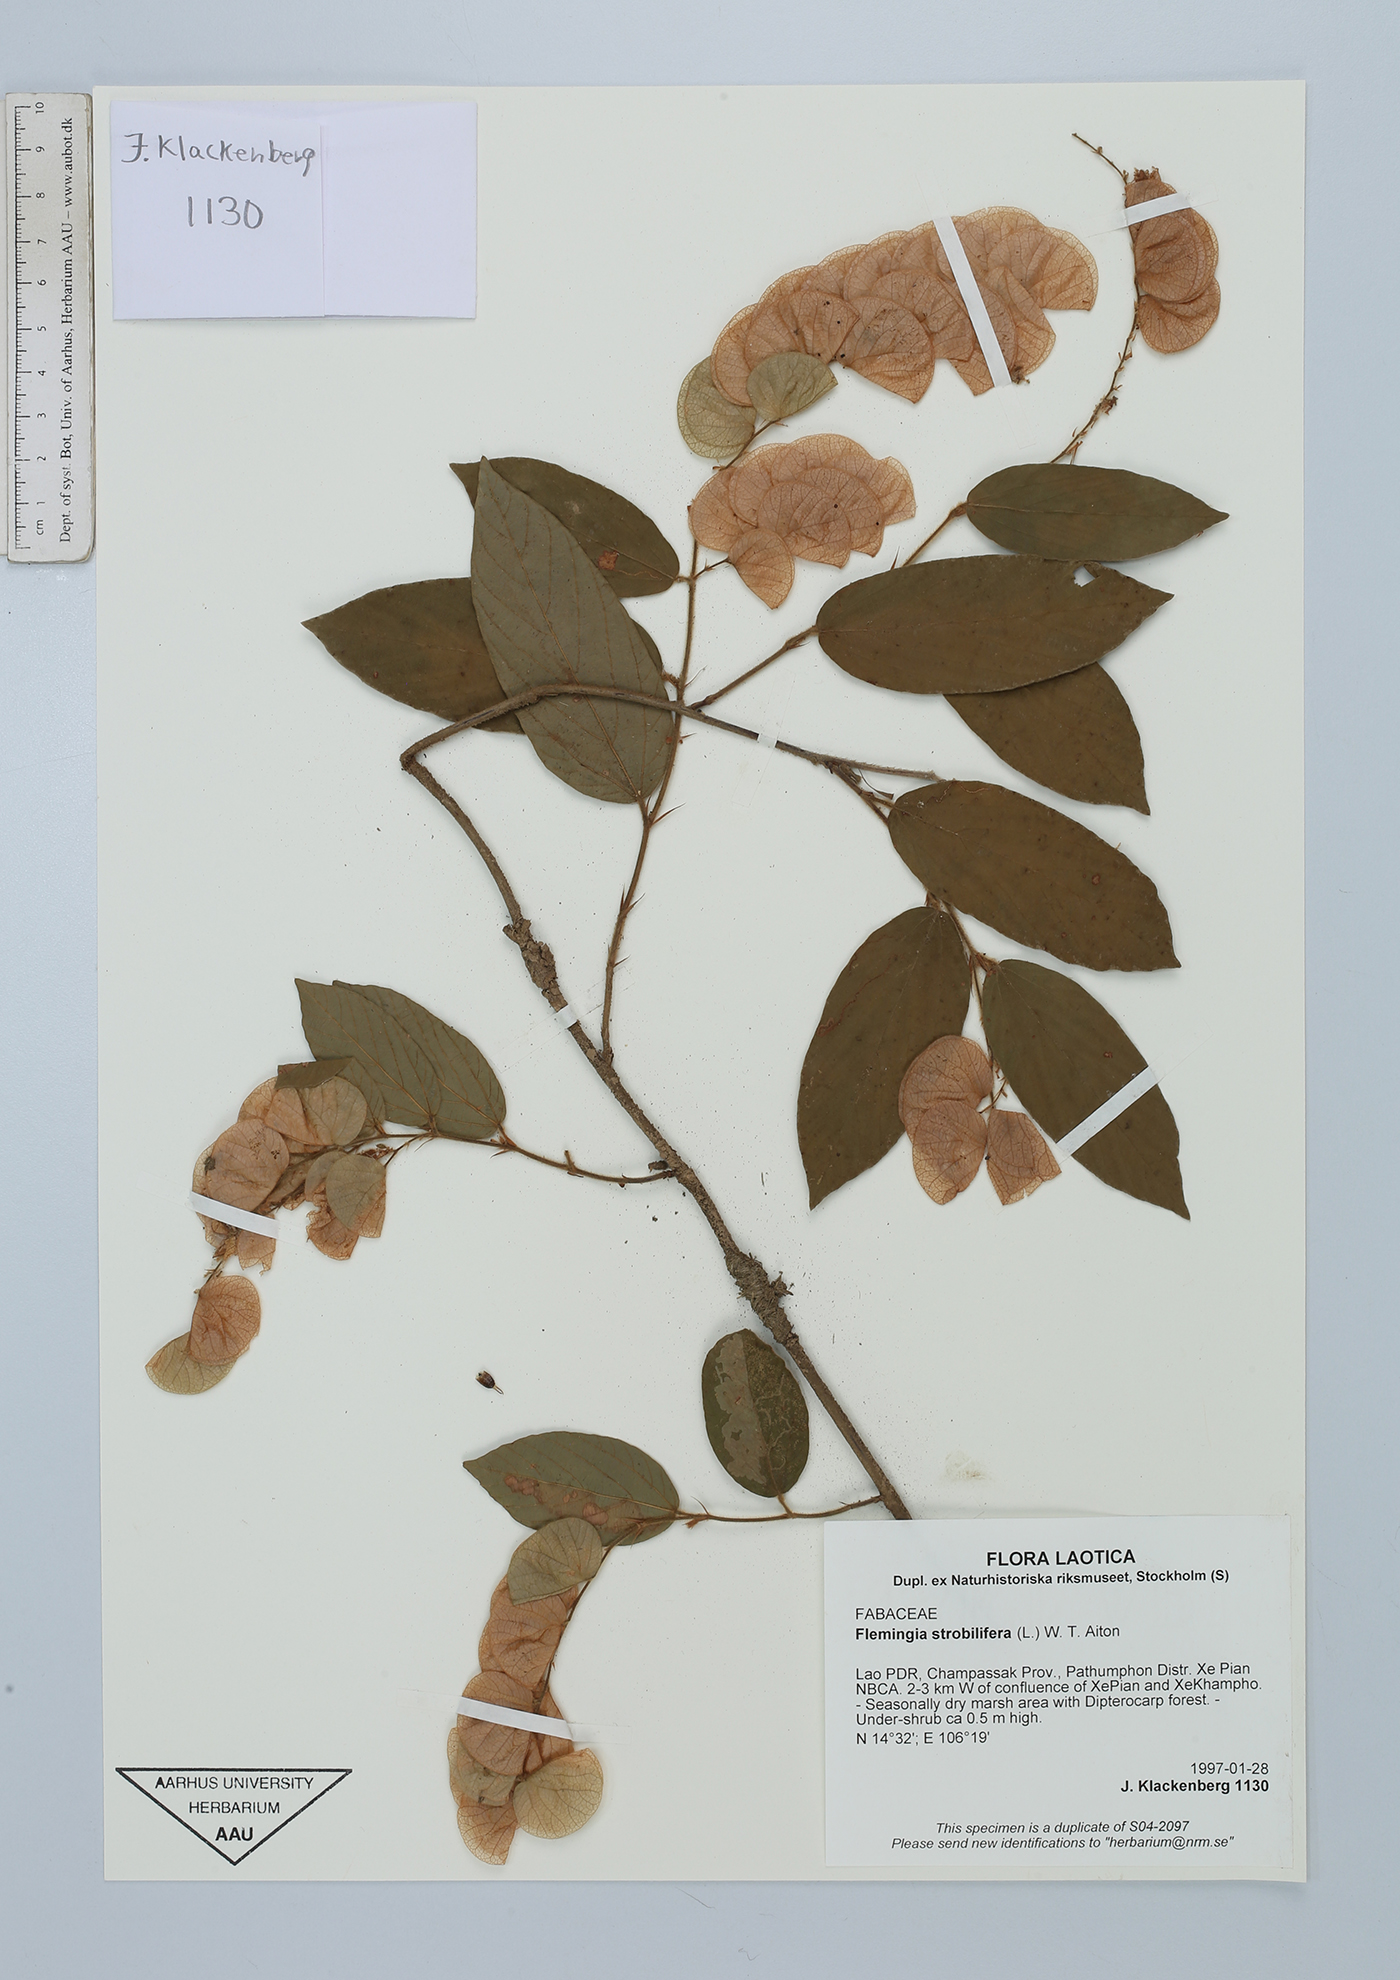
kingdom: Plantae
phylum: Tracheophyta
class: Magnoliopsida
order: Fabales
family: Fabaceae
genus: Flemingia
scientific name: Flemingia strobilifera
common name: Wild hops
